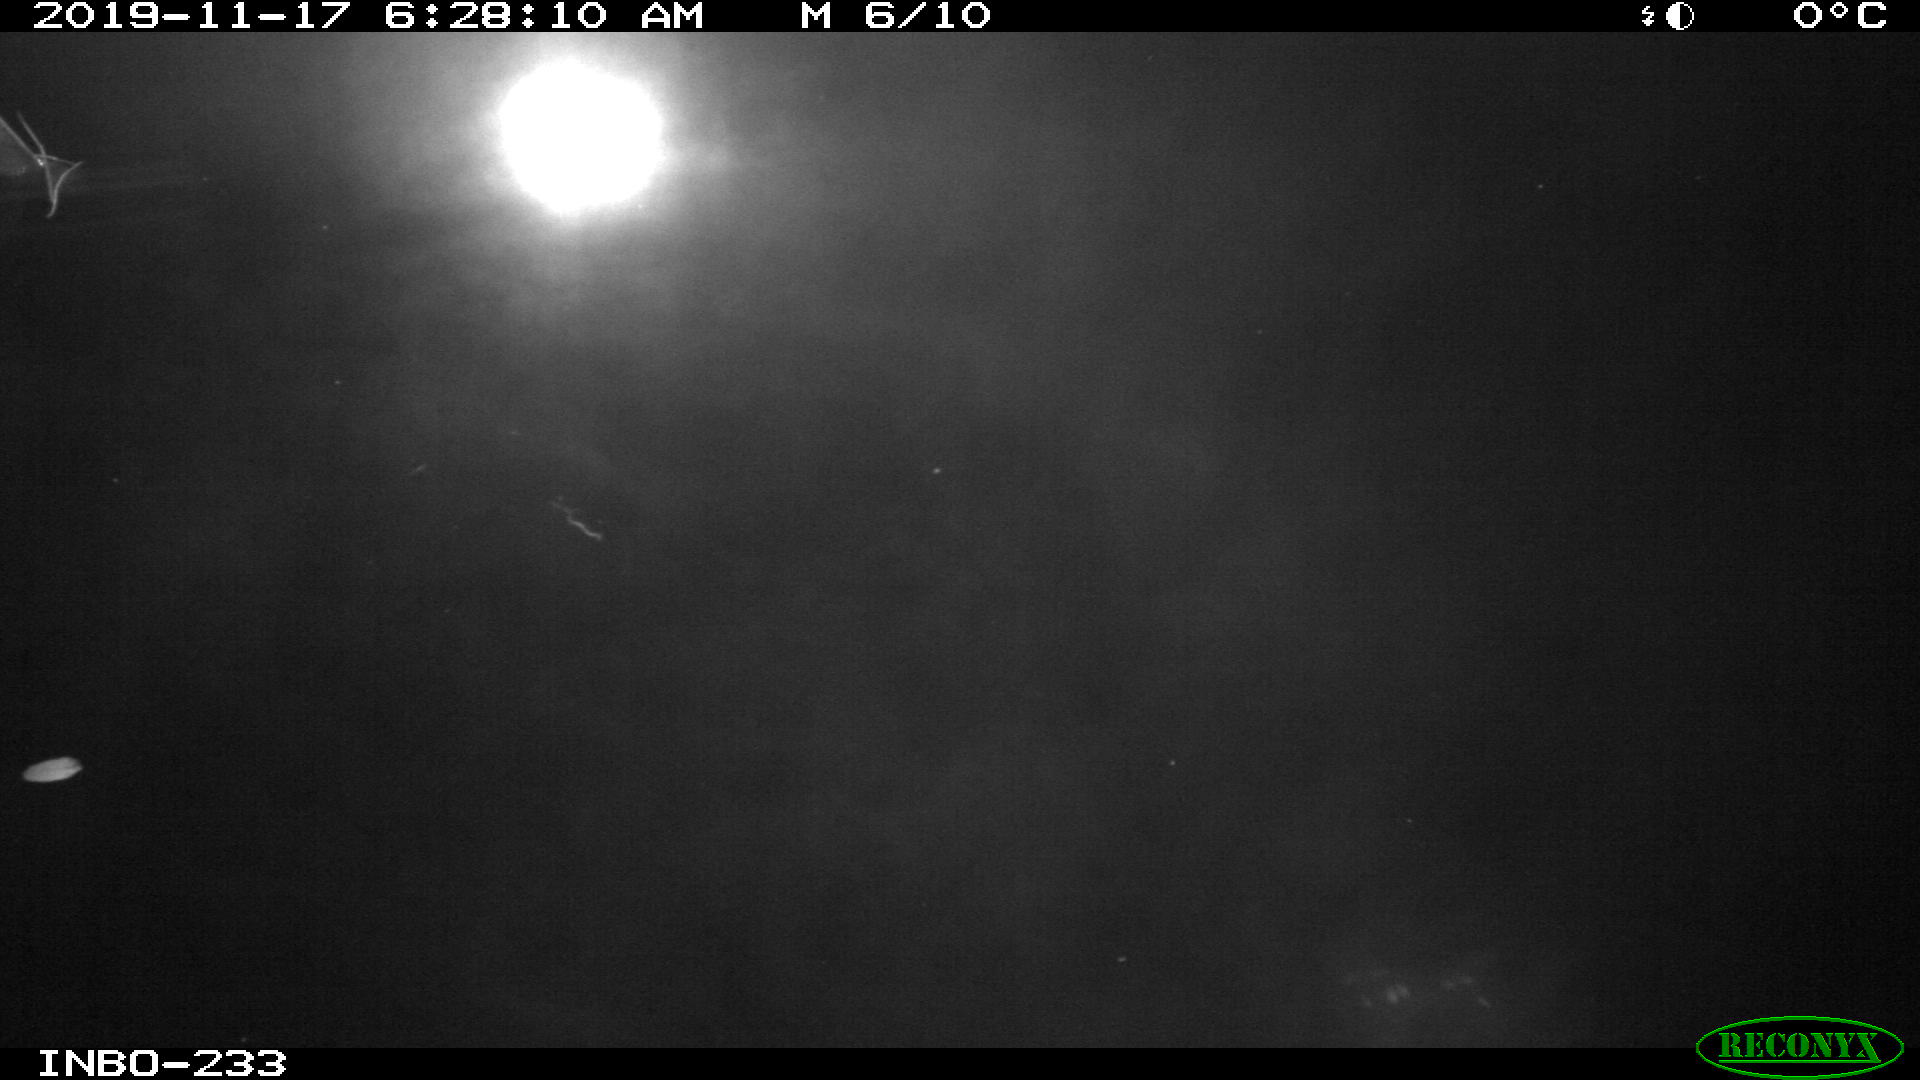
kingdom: Animalia
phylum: Chordata
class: Aves
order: Anseriformes
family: Anatidae
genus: Anas
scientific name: Anas platyrhynchos
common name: Mallard
